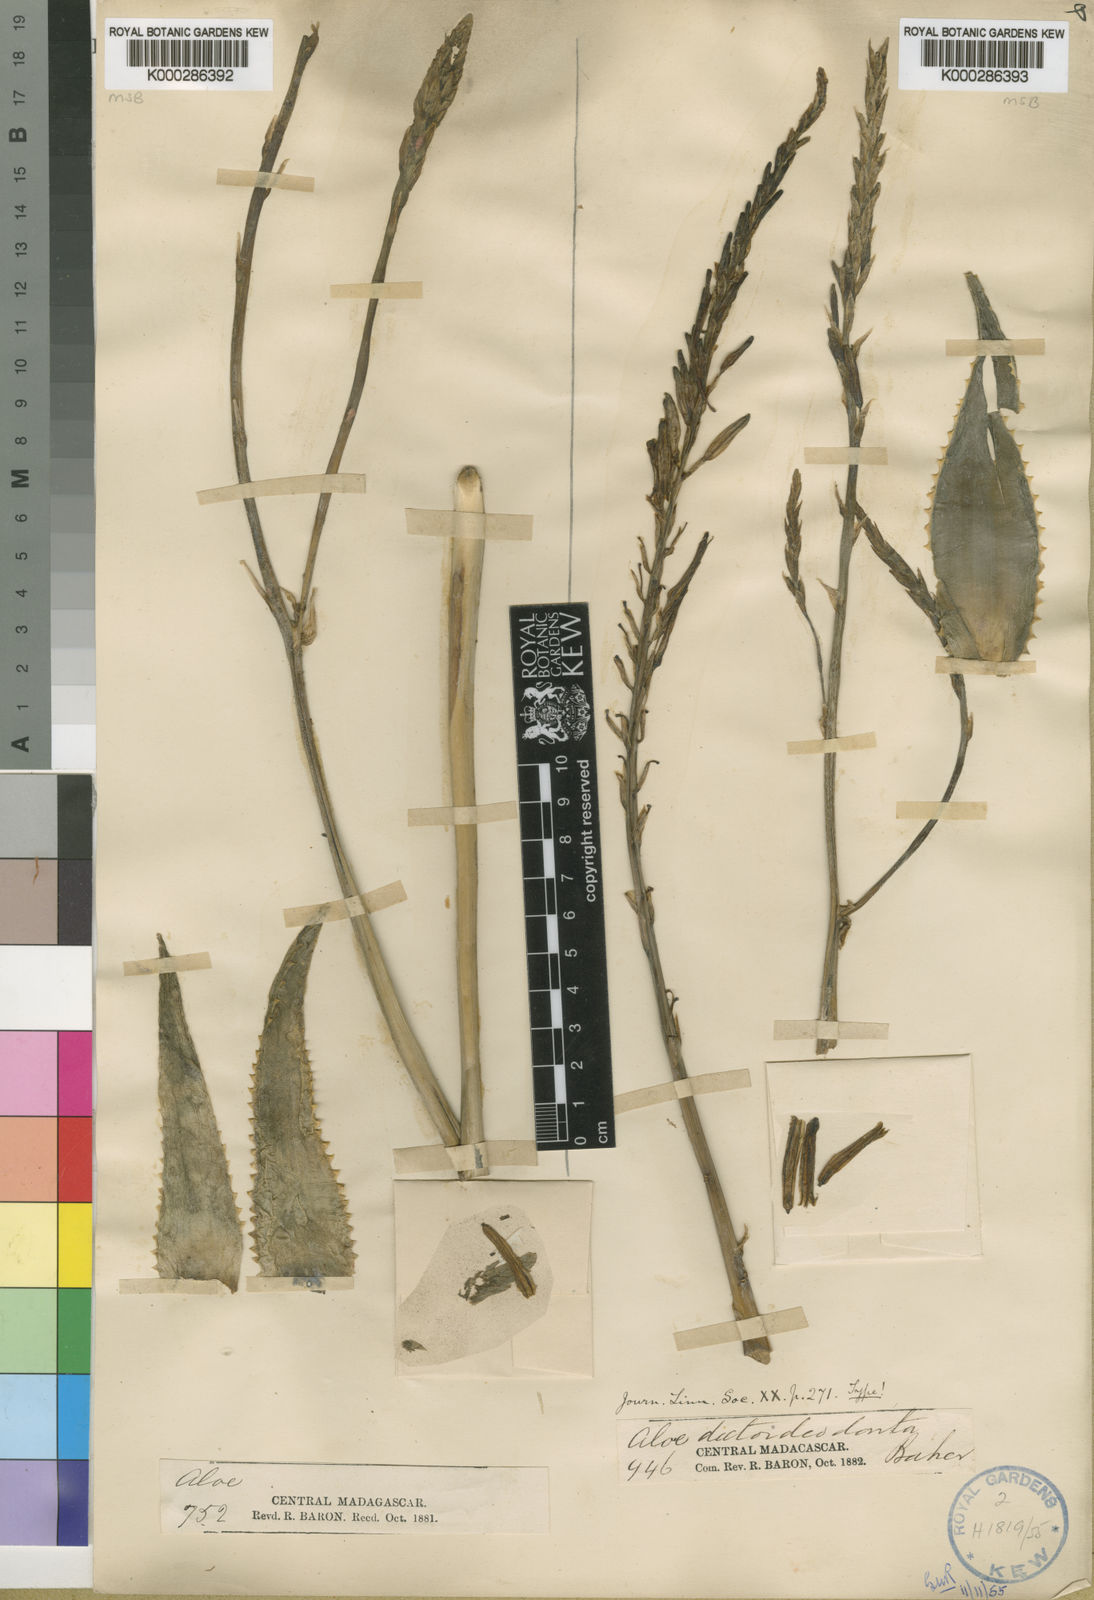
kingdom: Plantae
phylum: Tracheophyta
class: Liliopsida
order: Asparagales
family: Asphodelaceae
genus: Aloe
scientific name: Aloe deltoideodonta
